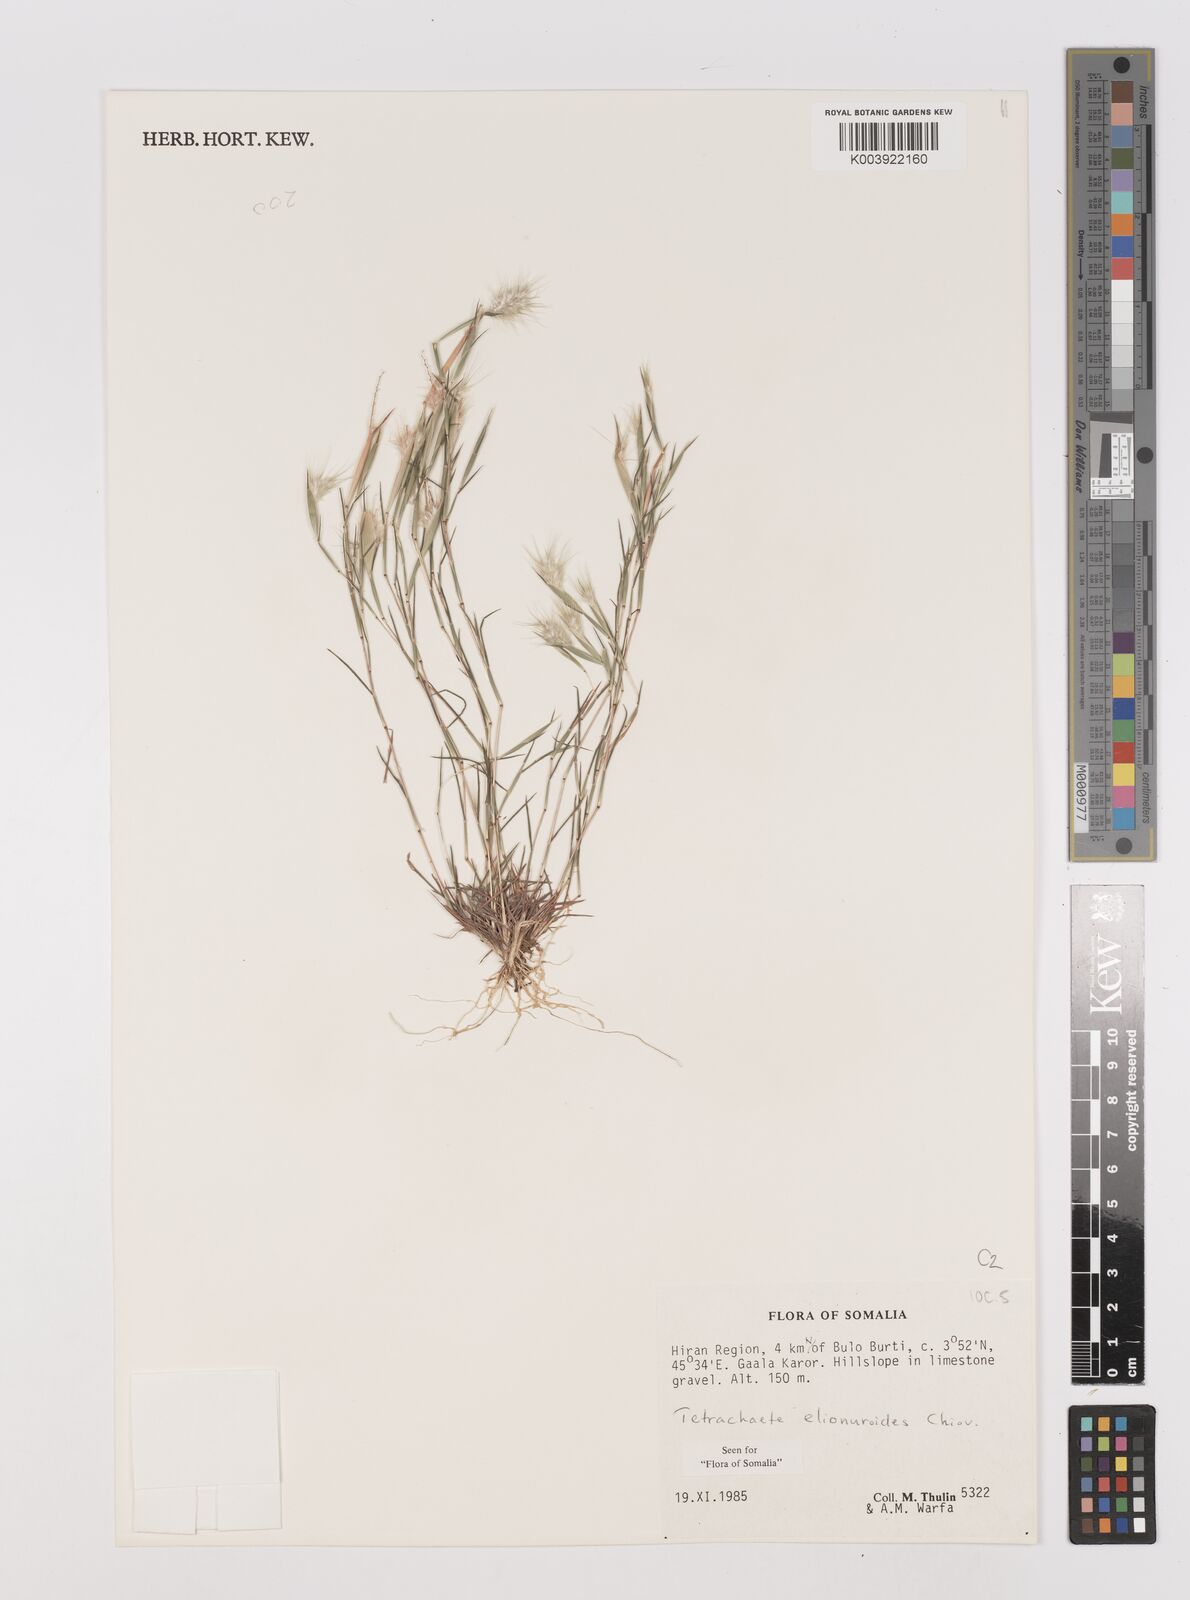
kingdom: Plantae
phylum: Tracheophyta
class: Liliopsida
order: Poales
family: Poaceae
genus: Tetrachaete
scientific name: Tetrachaete elionuroides
